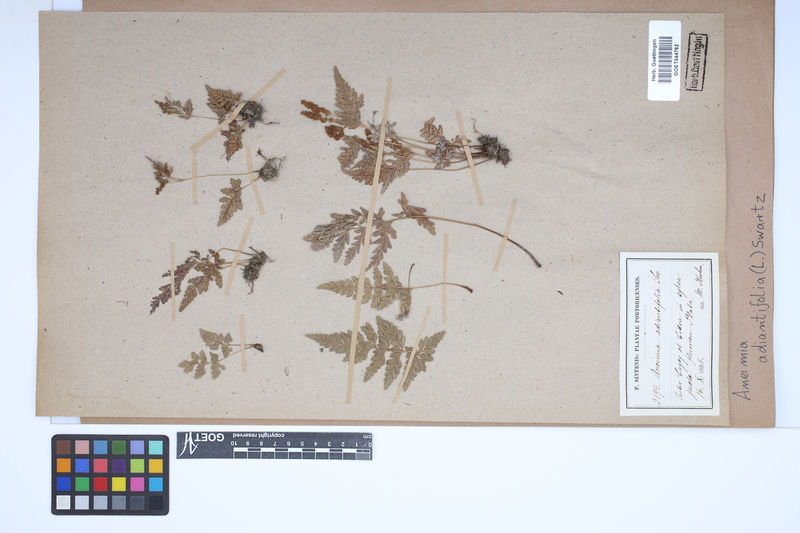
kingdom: Plantae
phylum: Tracheophyta
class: Polypodiopsida
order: Schizaeales
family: Anemiaceae
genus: Anemia
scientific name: Anemia adiantifolia
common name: Pine fern
